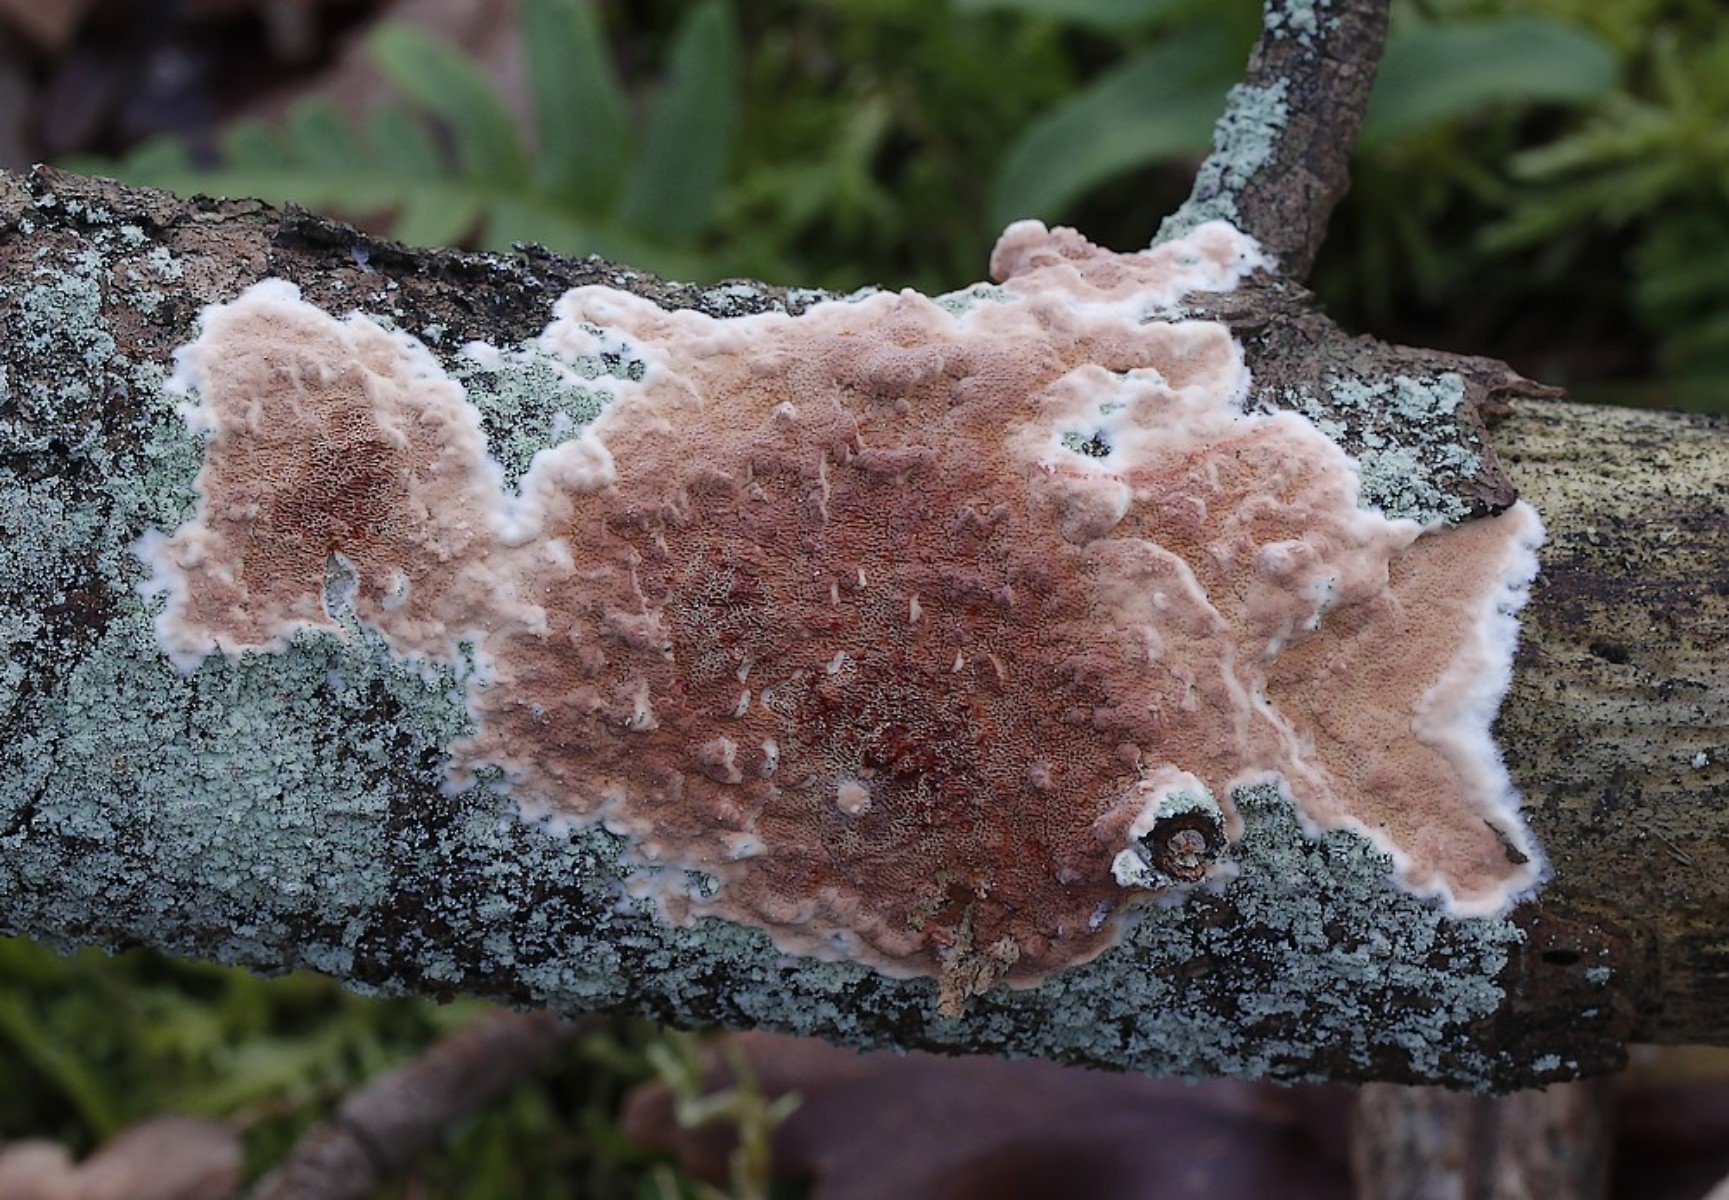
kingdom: Fungi
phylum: Basidiomycota
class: Agaricomycetes
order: Polyporales
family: Irpicaceae
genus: Meruliopsis
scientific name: Meruliopsis taxicola
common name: purpurbrun foldporesvamp
